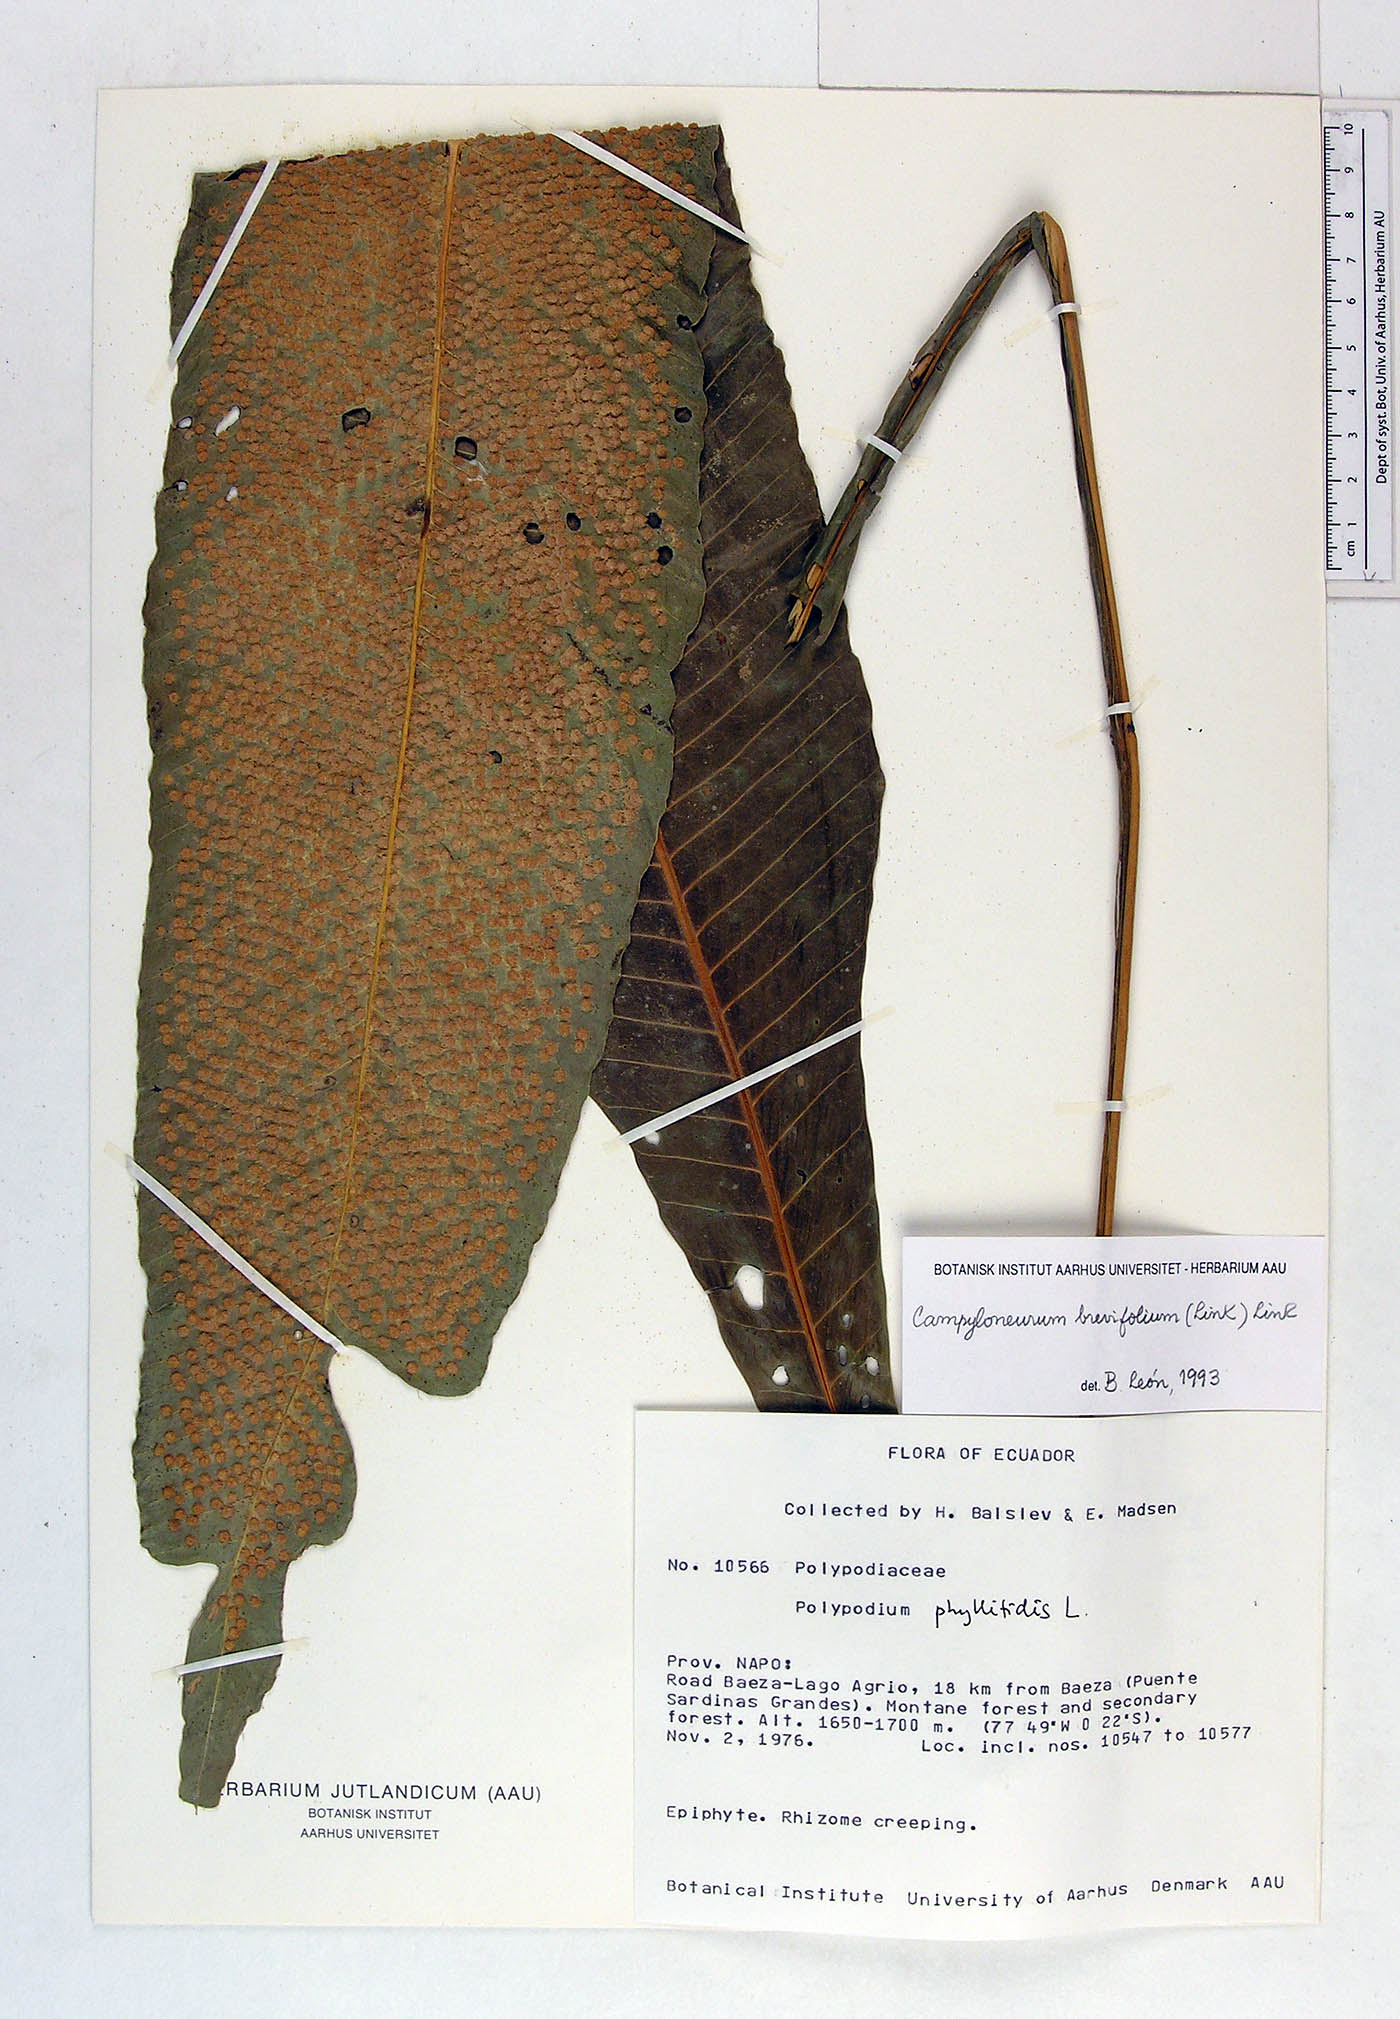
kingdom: Plantae
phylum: Tracheophyta
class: Polypodiopsida
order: Polypodiales
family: Polypodiaceae
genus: Campyloneurum
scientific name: Campyloneurum phyllitidis
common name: Cow-tongue fern
